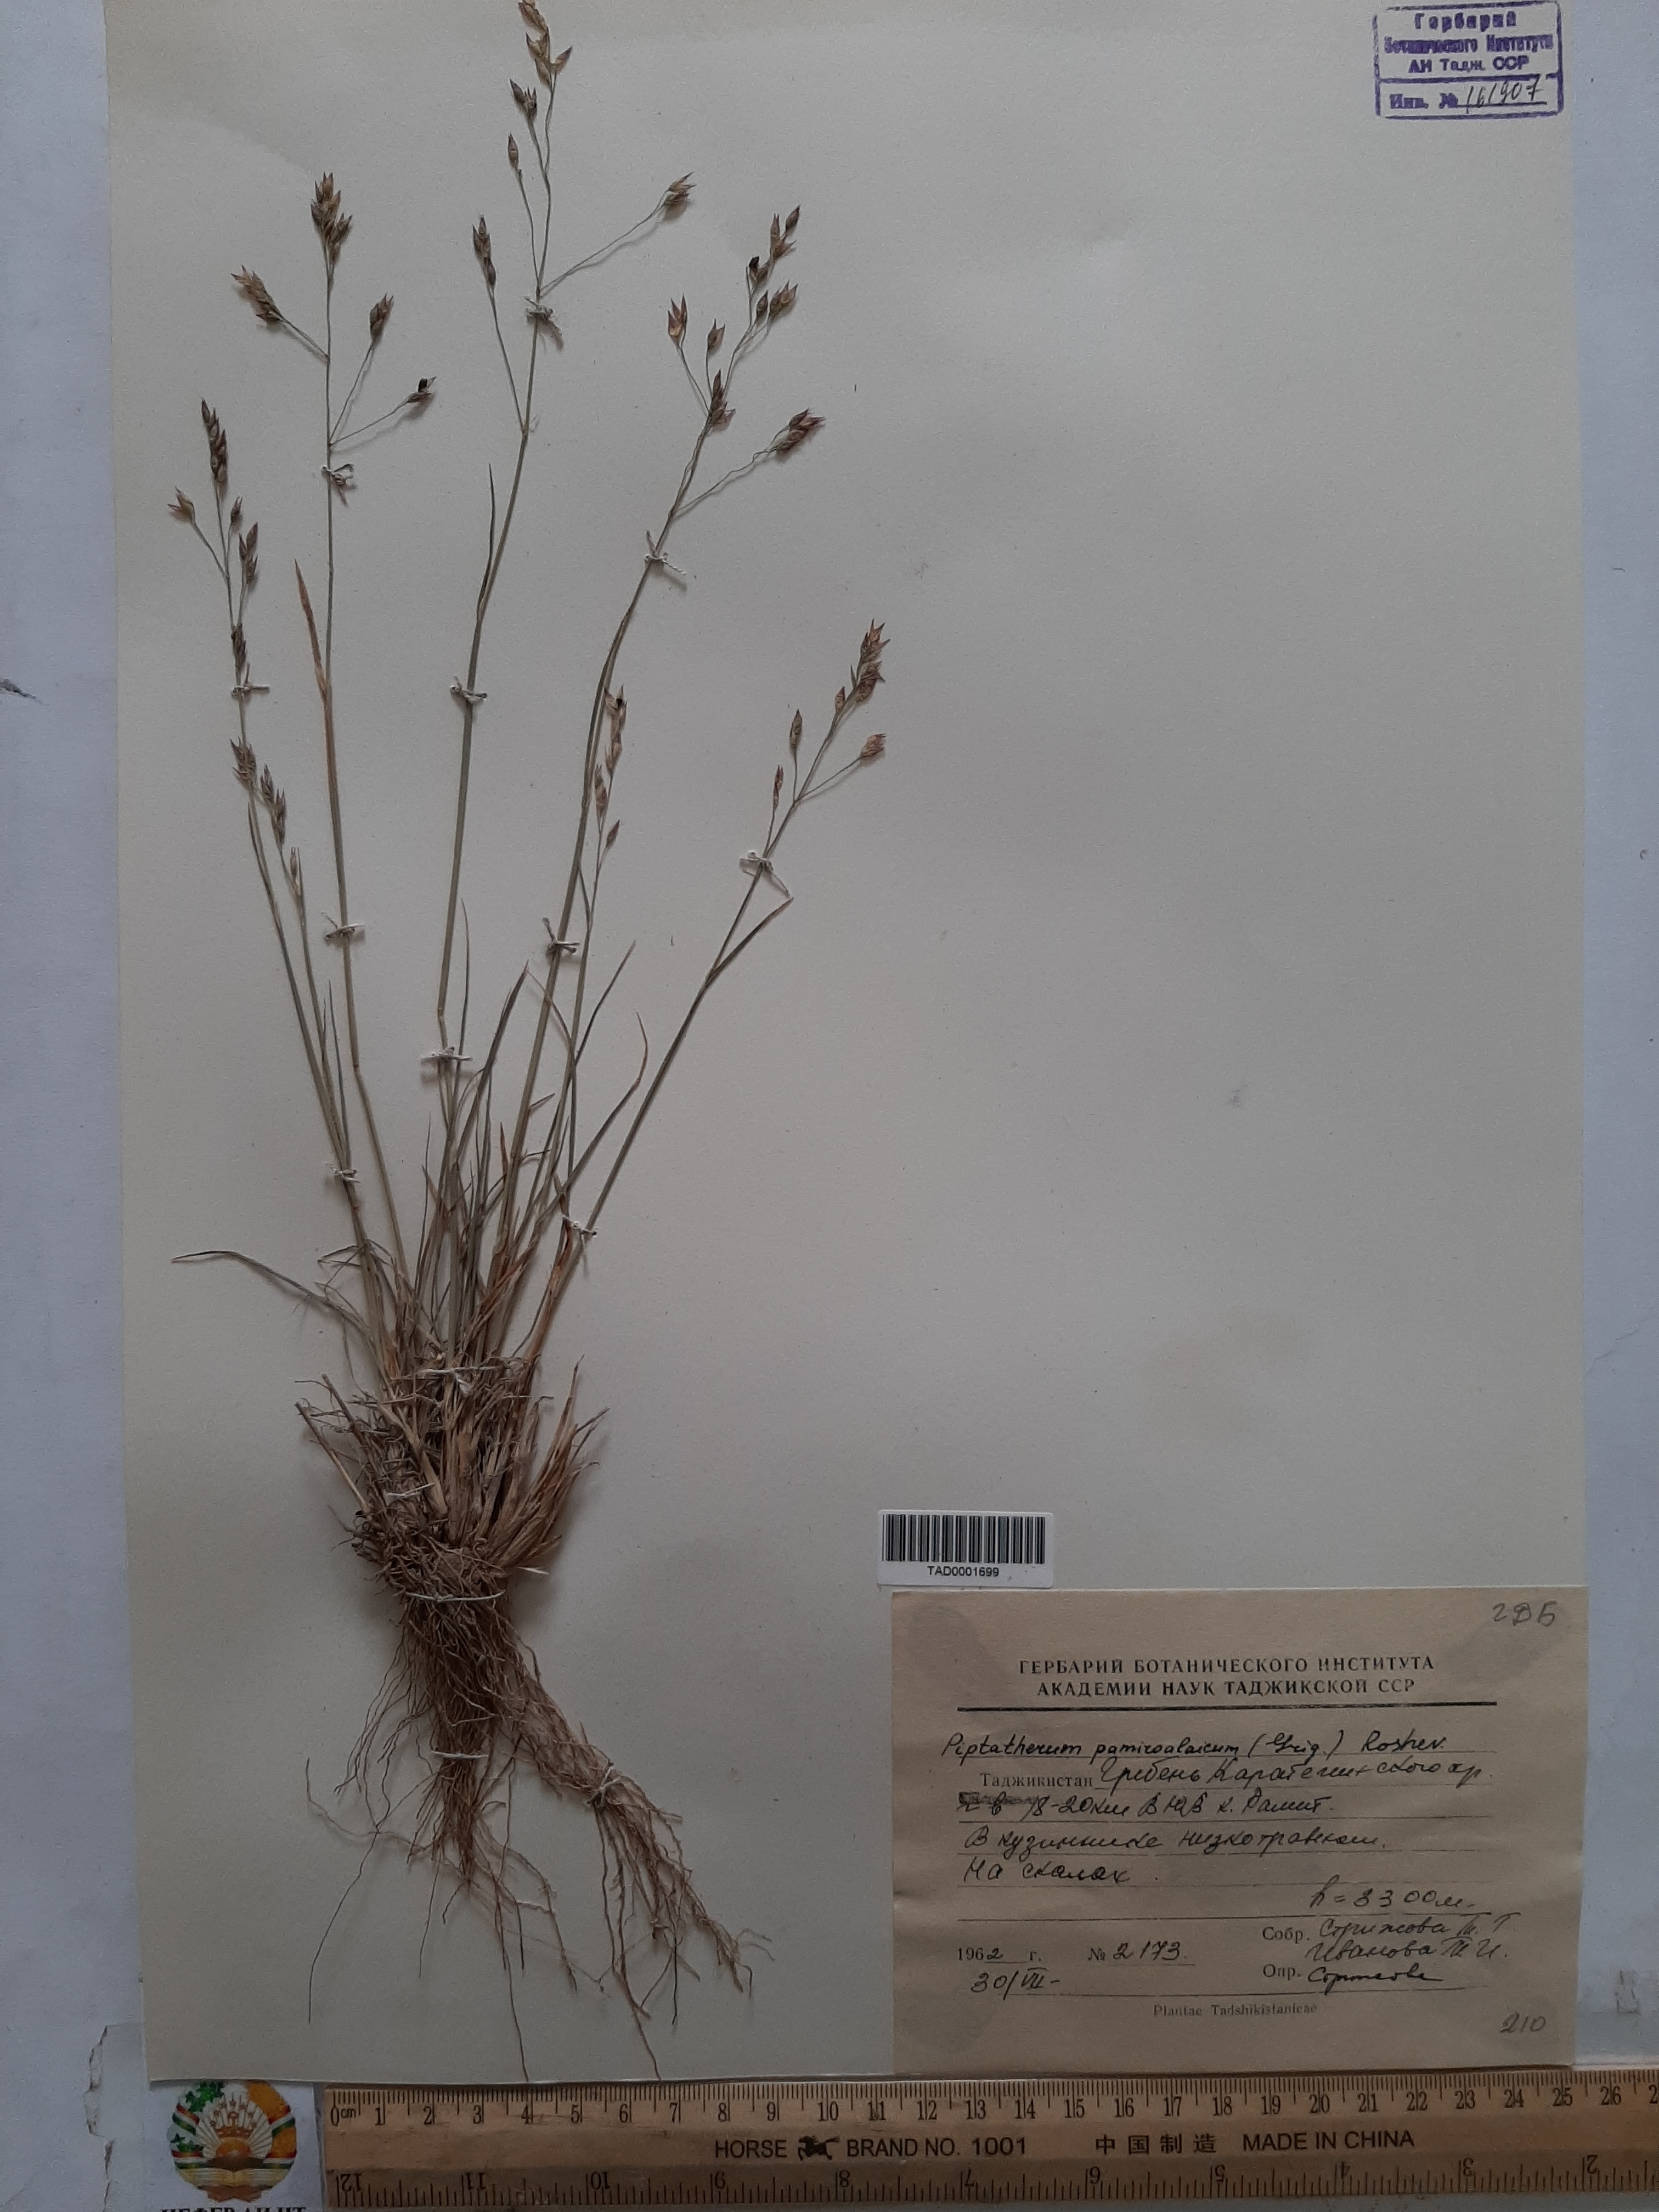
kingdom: Plantae
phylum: Tracheophyta
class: Liliopsida
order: Poales
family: Poaceae
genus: Piptatherum
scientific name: Piptatherum pamiralaicum
